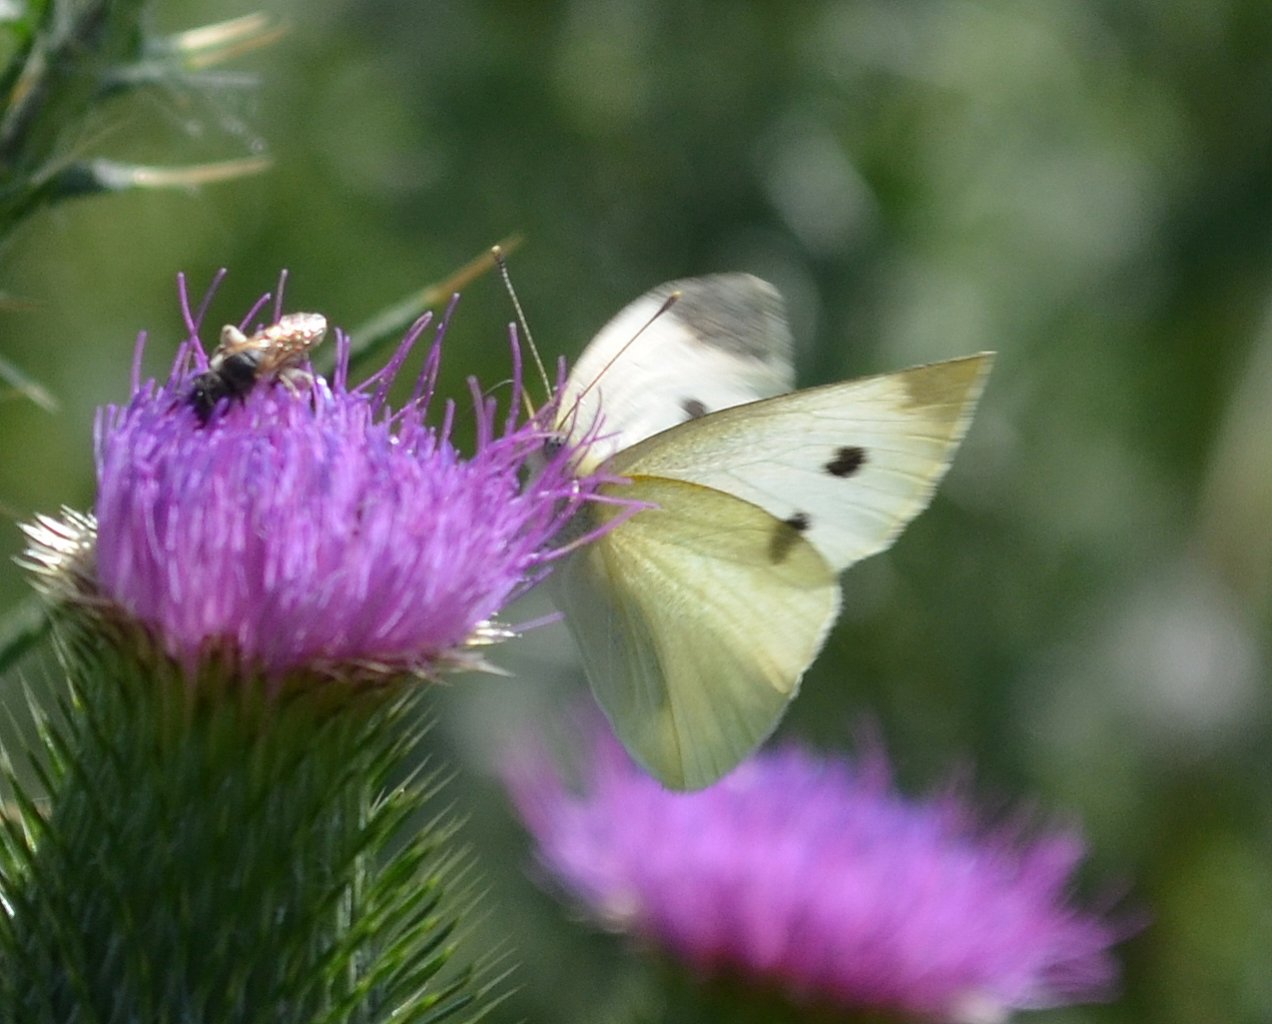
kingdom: Animalia
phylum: Arthropoda
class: Insecta
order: Lepidoptera
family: Pieridae
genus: Pieris
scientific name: Pieris rapae
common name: Cabbage White
